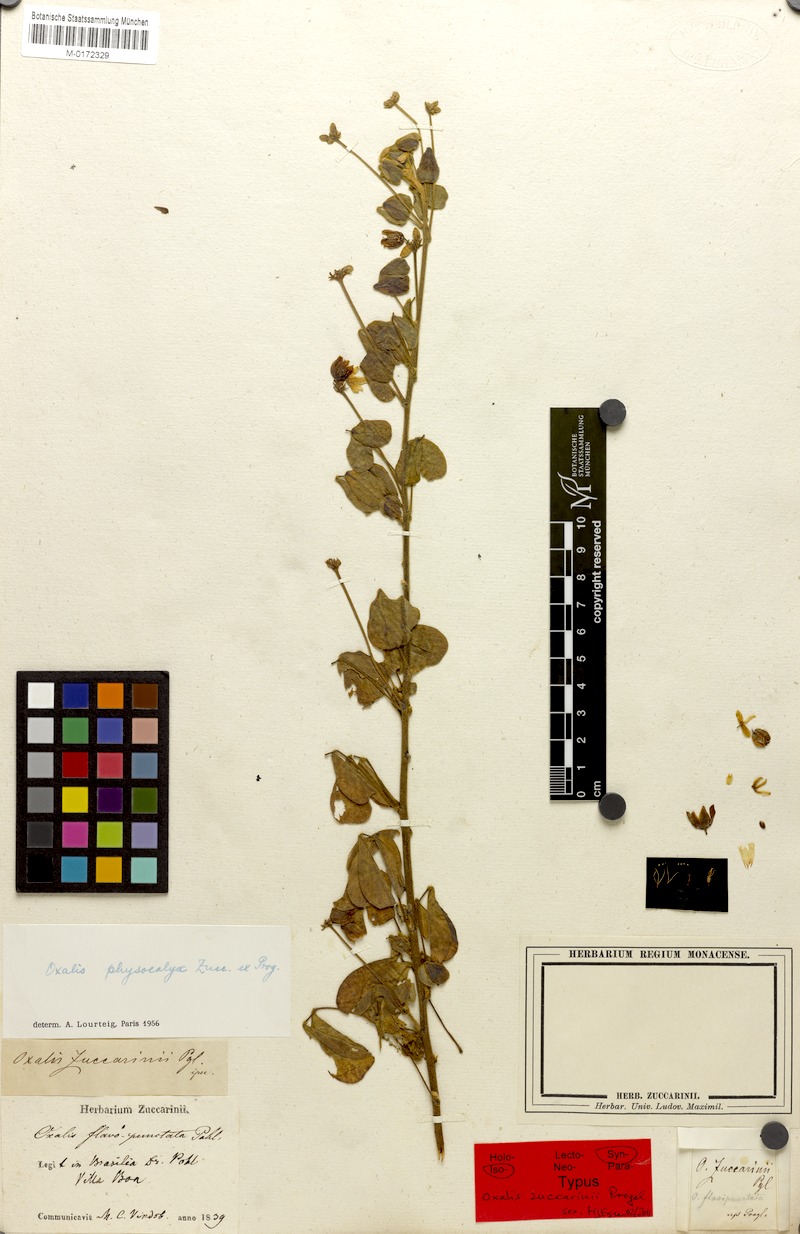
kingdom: Plantae
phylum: Tracheophyta
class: Magnoliopsida
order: Oxalidales
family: Oxalidaceae
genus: Oxalis
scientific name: Oxalis physocalyx
